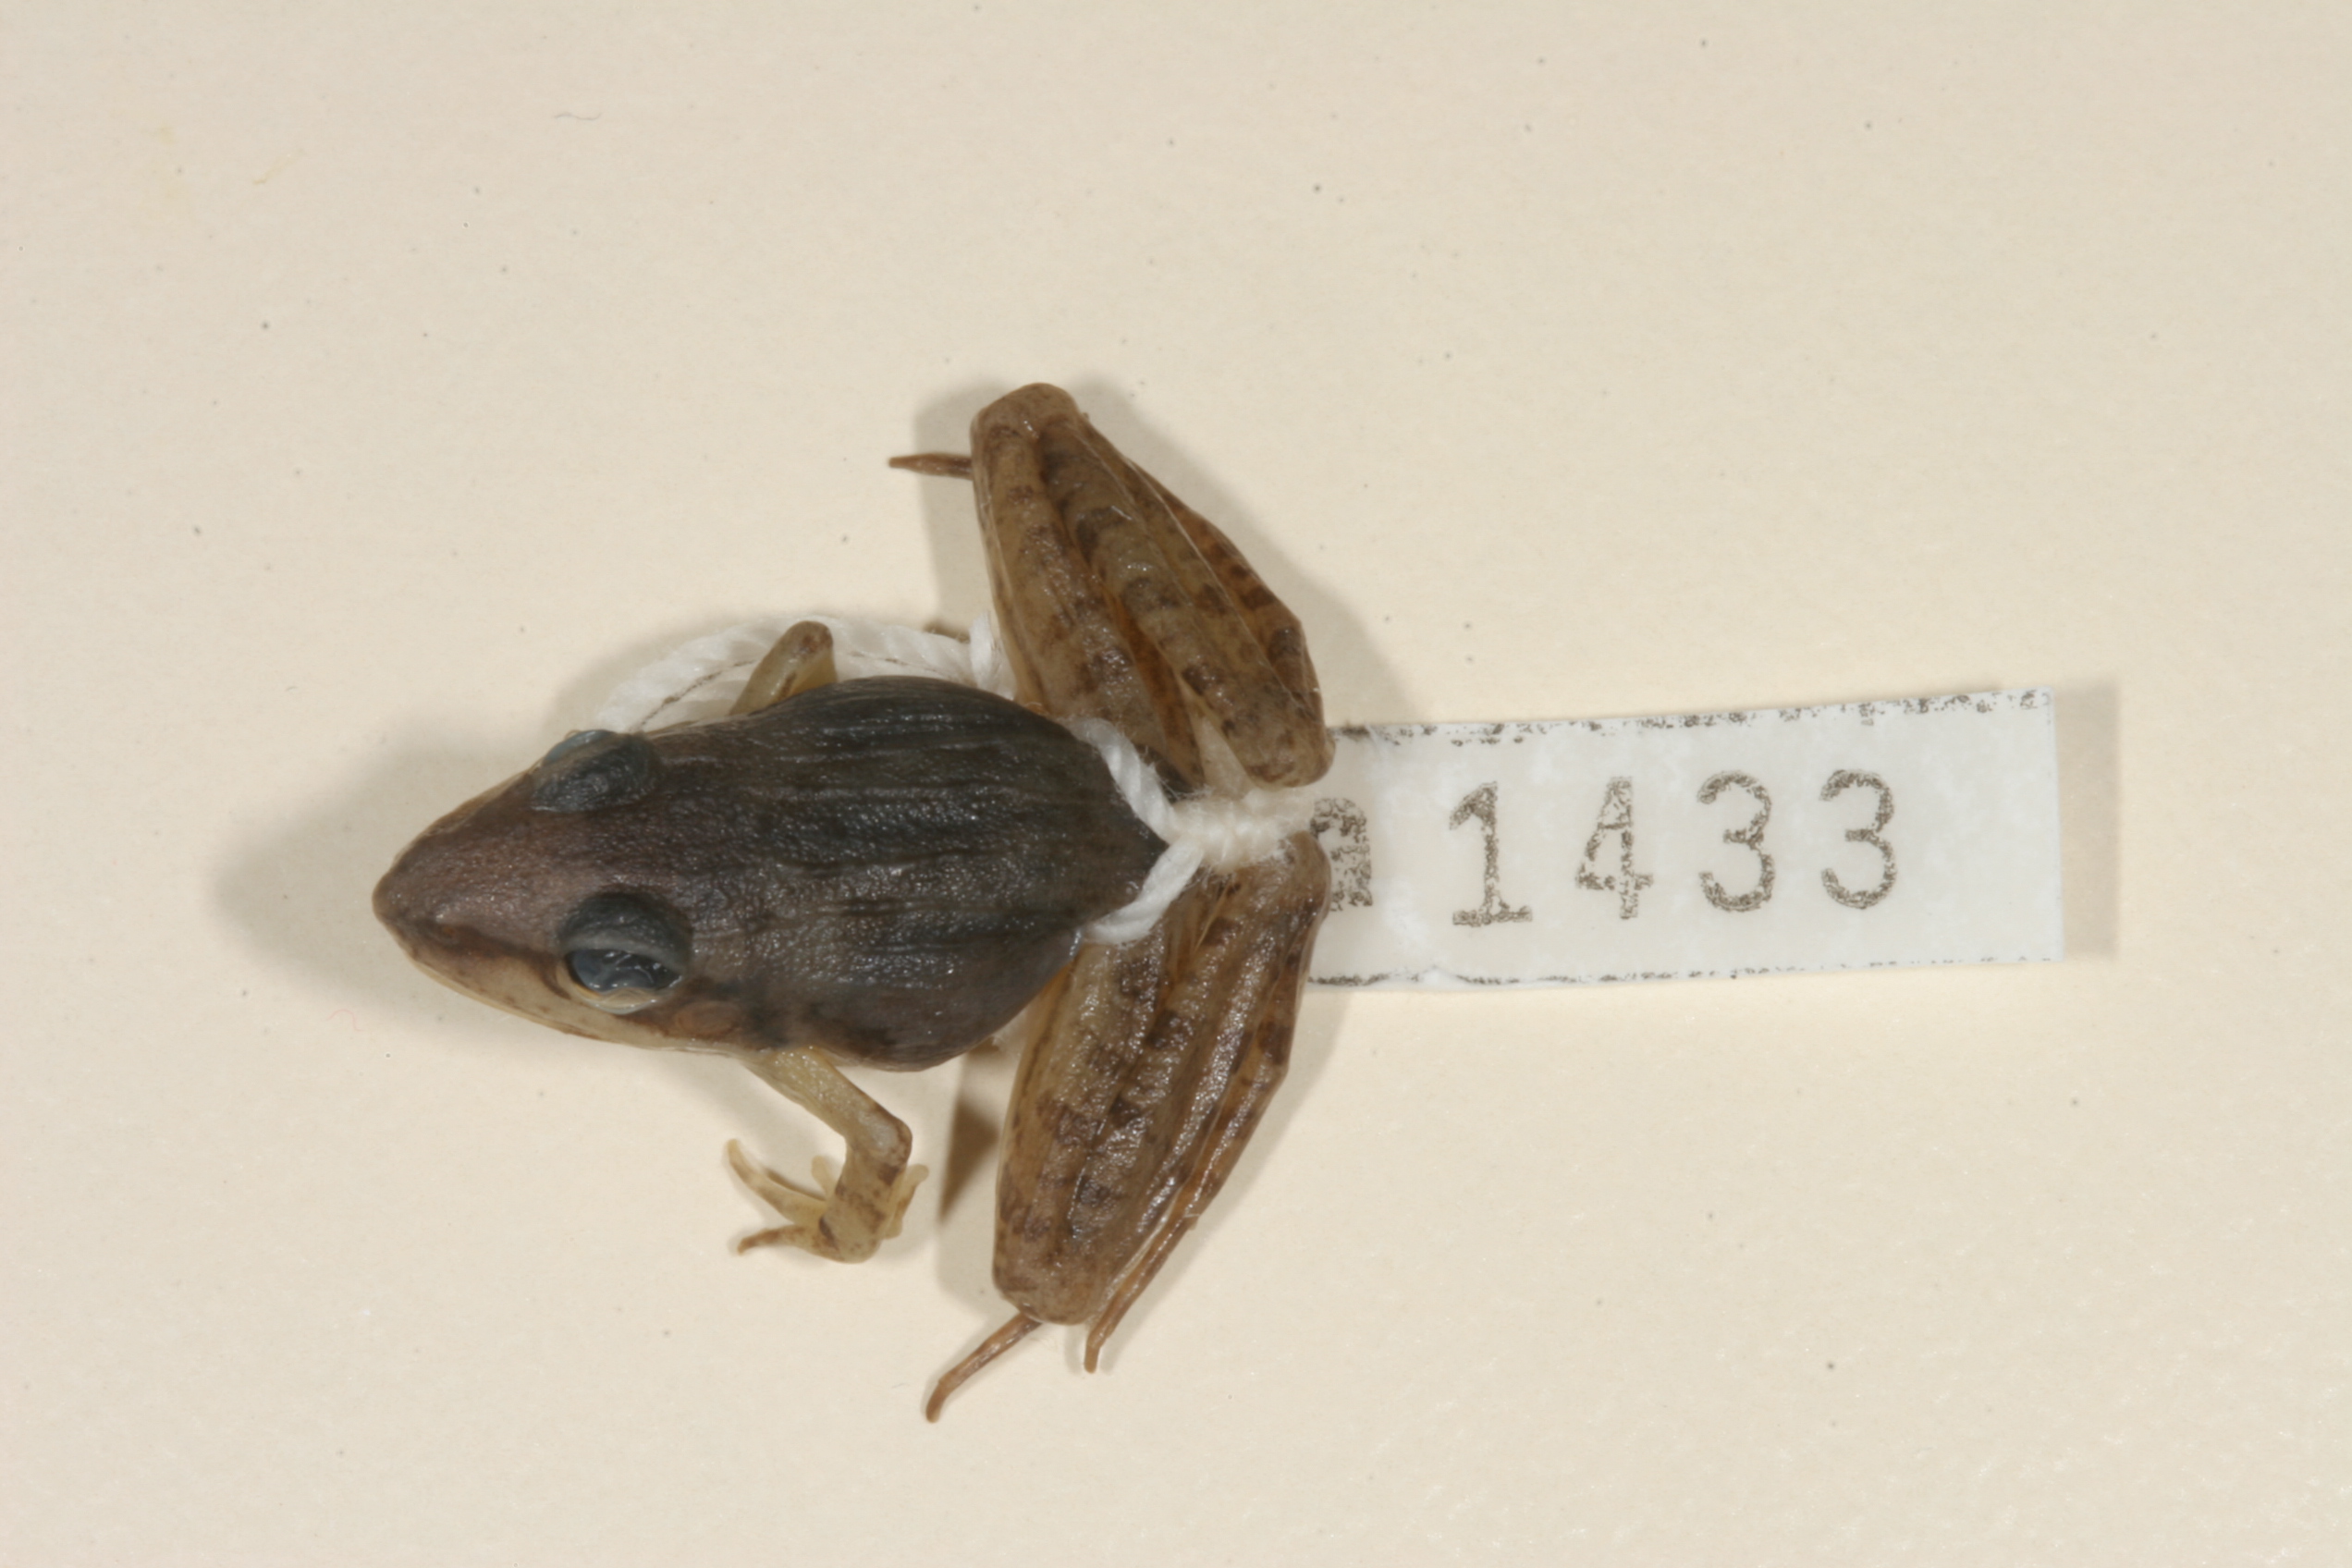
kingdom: Animalia
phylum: Chordata
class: Amphibia
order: Anura
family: Ptychadenidae
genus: Ptychadena
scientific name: Ptychadena anchietae
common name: Anchieta's ridged frog
